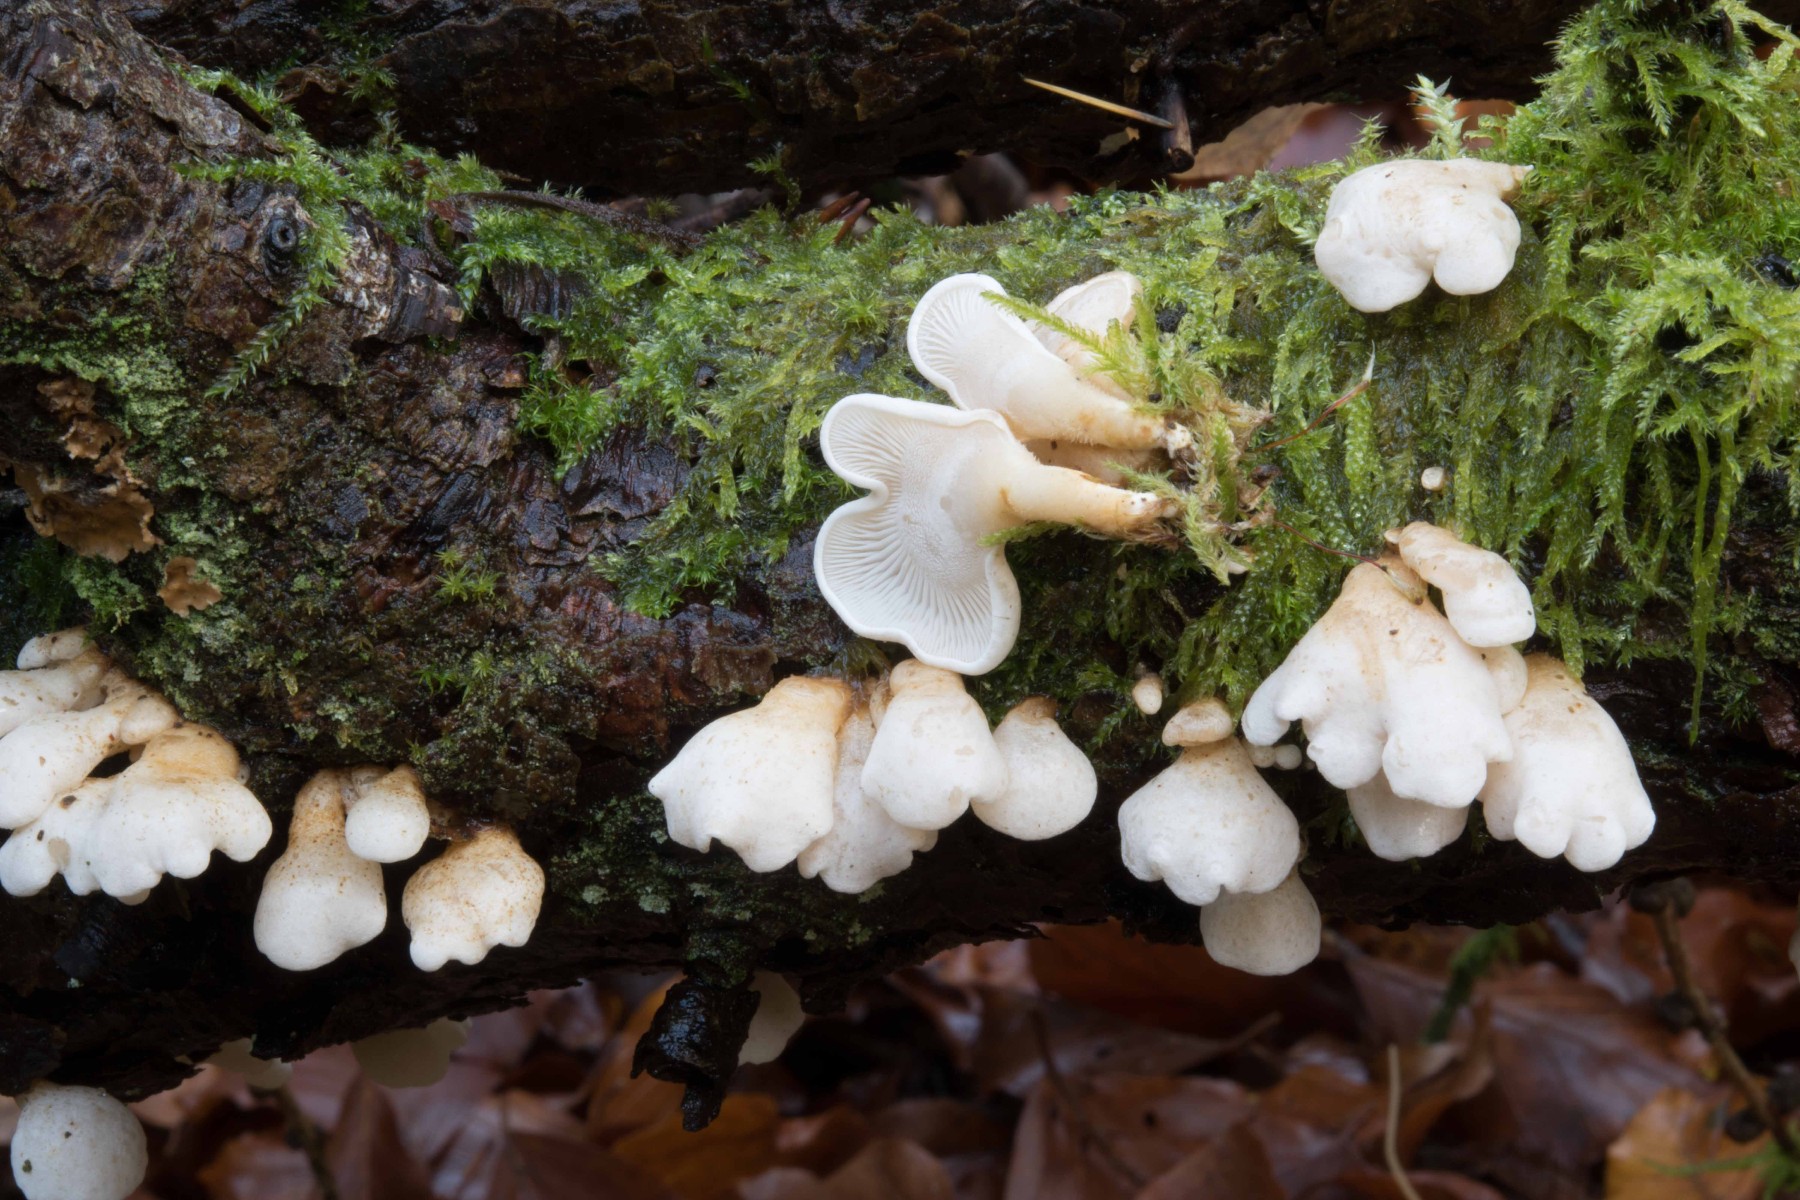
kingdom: Fungi
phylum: Basidiomycota
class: Agaricomycetes
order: Agaricales
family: Mycenaceae
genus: Panellus
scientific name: Panellus mitis
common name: mild epaulethat
